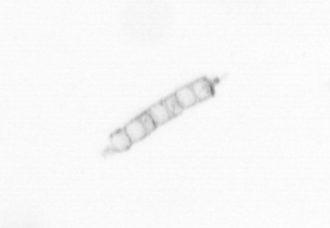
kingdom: Chromista
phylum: Ochrophyta
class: Bacillariophyceae
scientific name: Bacillariophyceae
